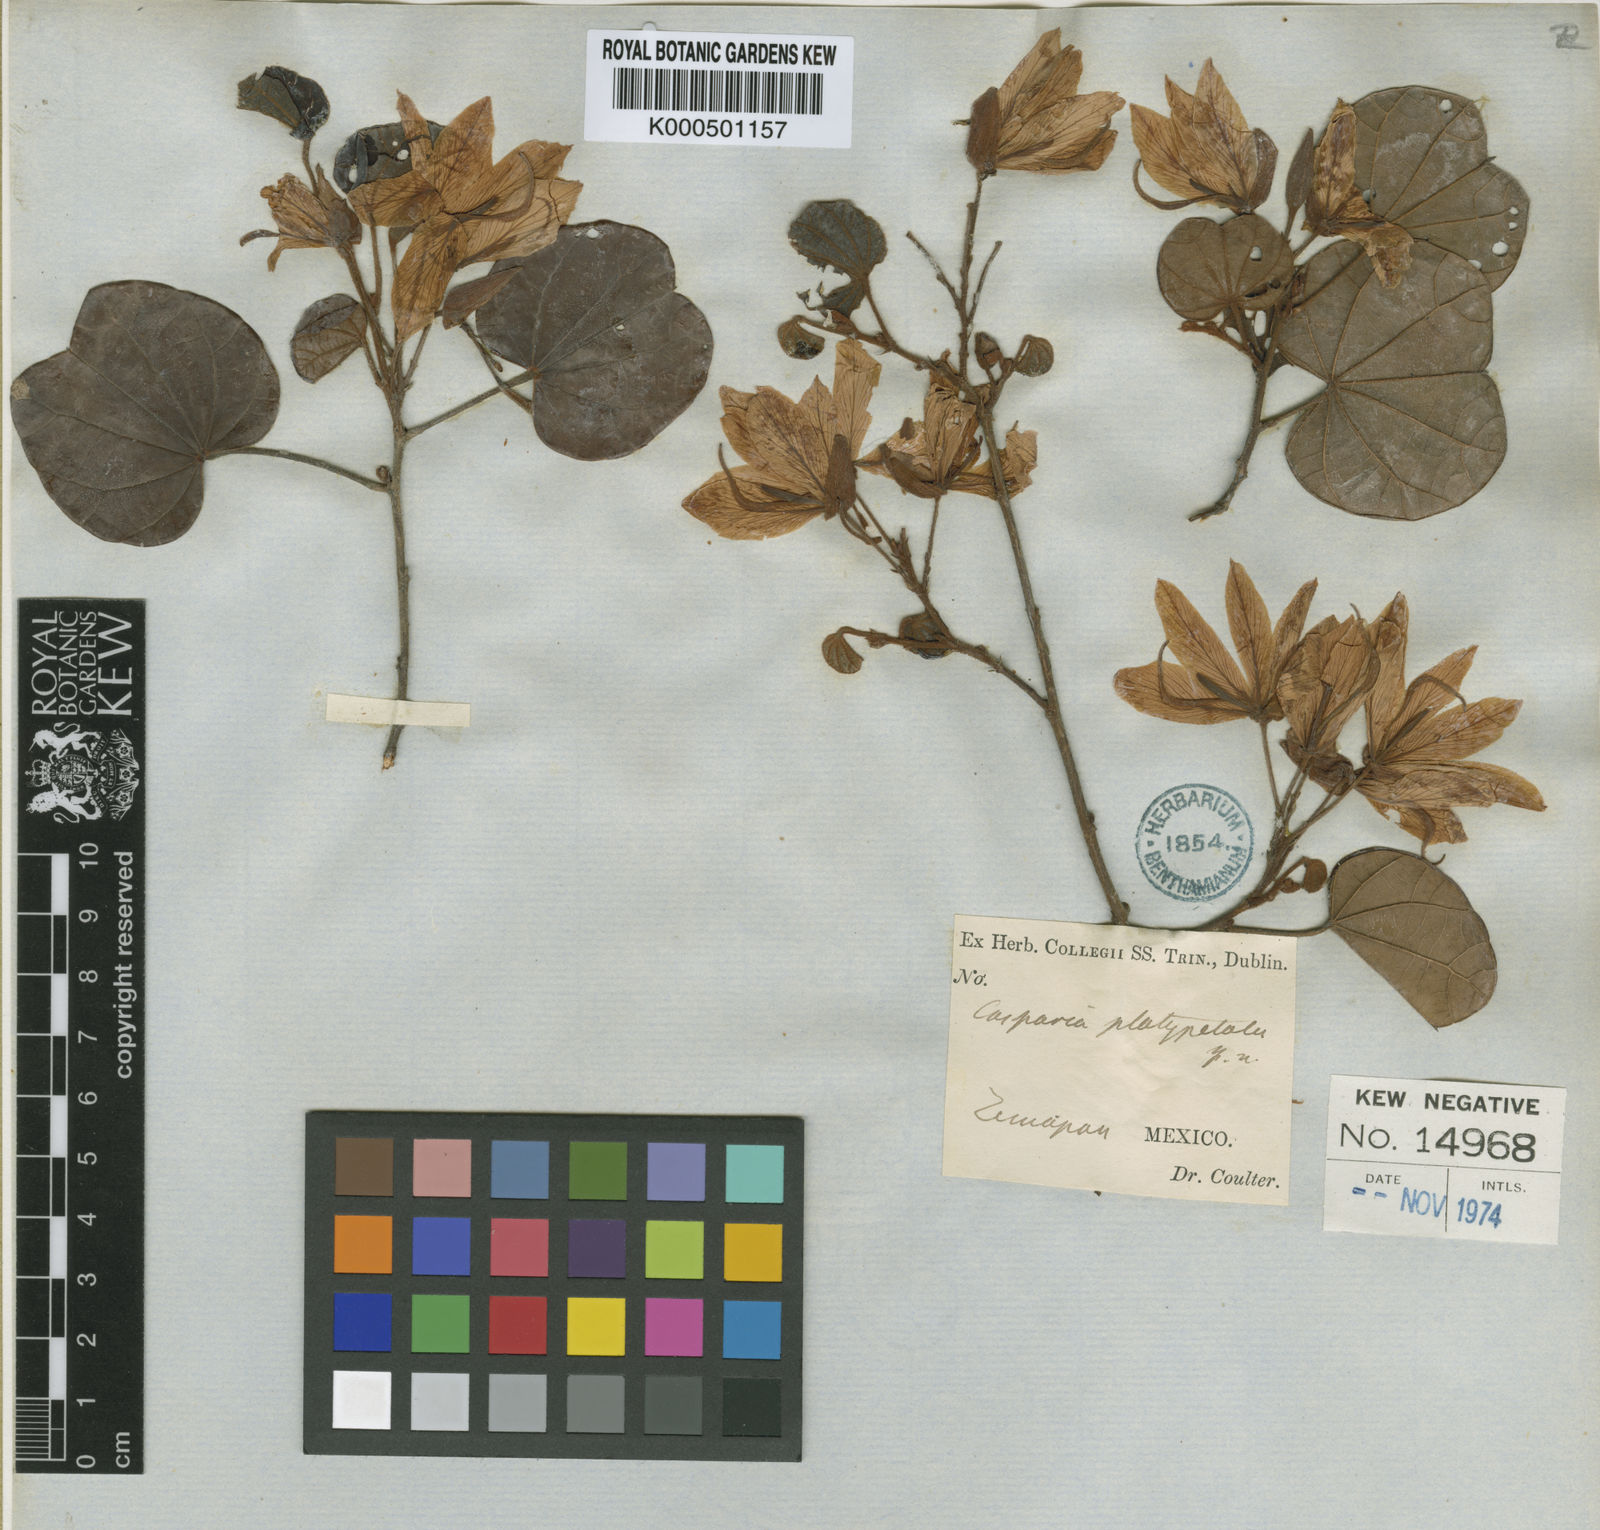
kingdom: Plantae
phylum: Tracheophyta
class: Magnoliopsida
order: Fabales
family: Fabaceae
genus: Bauhinia
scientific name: Bauhinia platypetala
